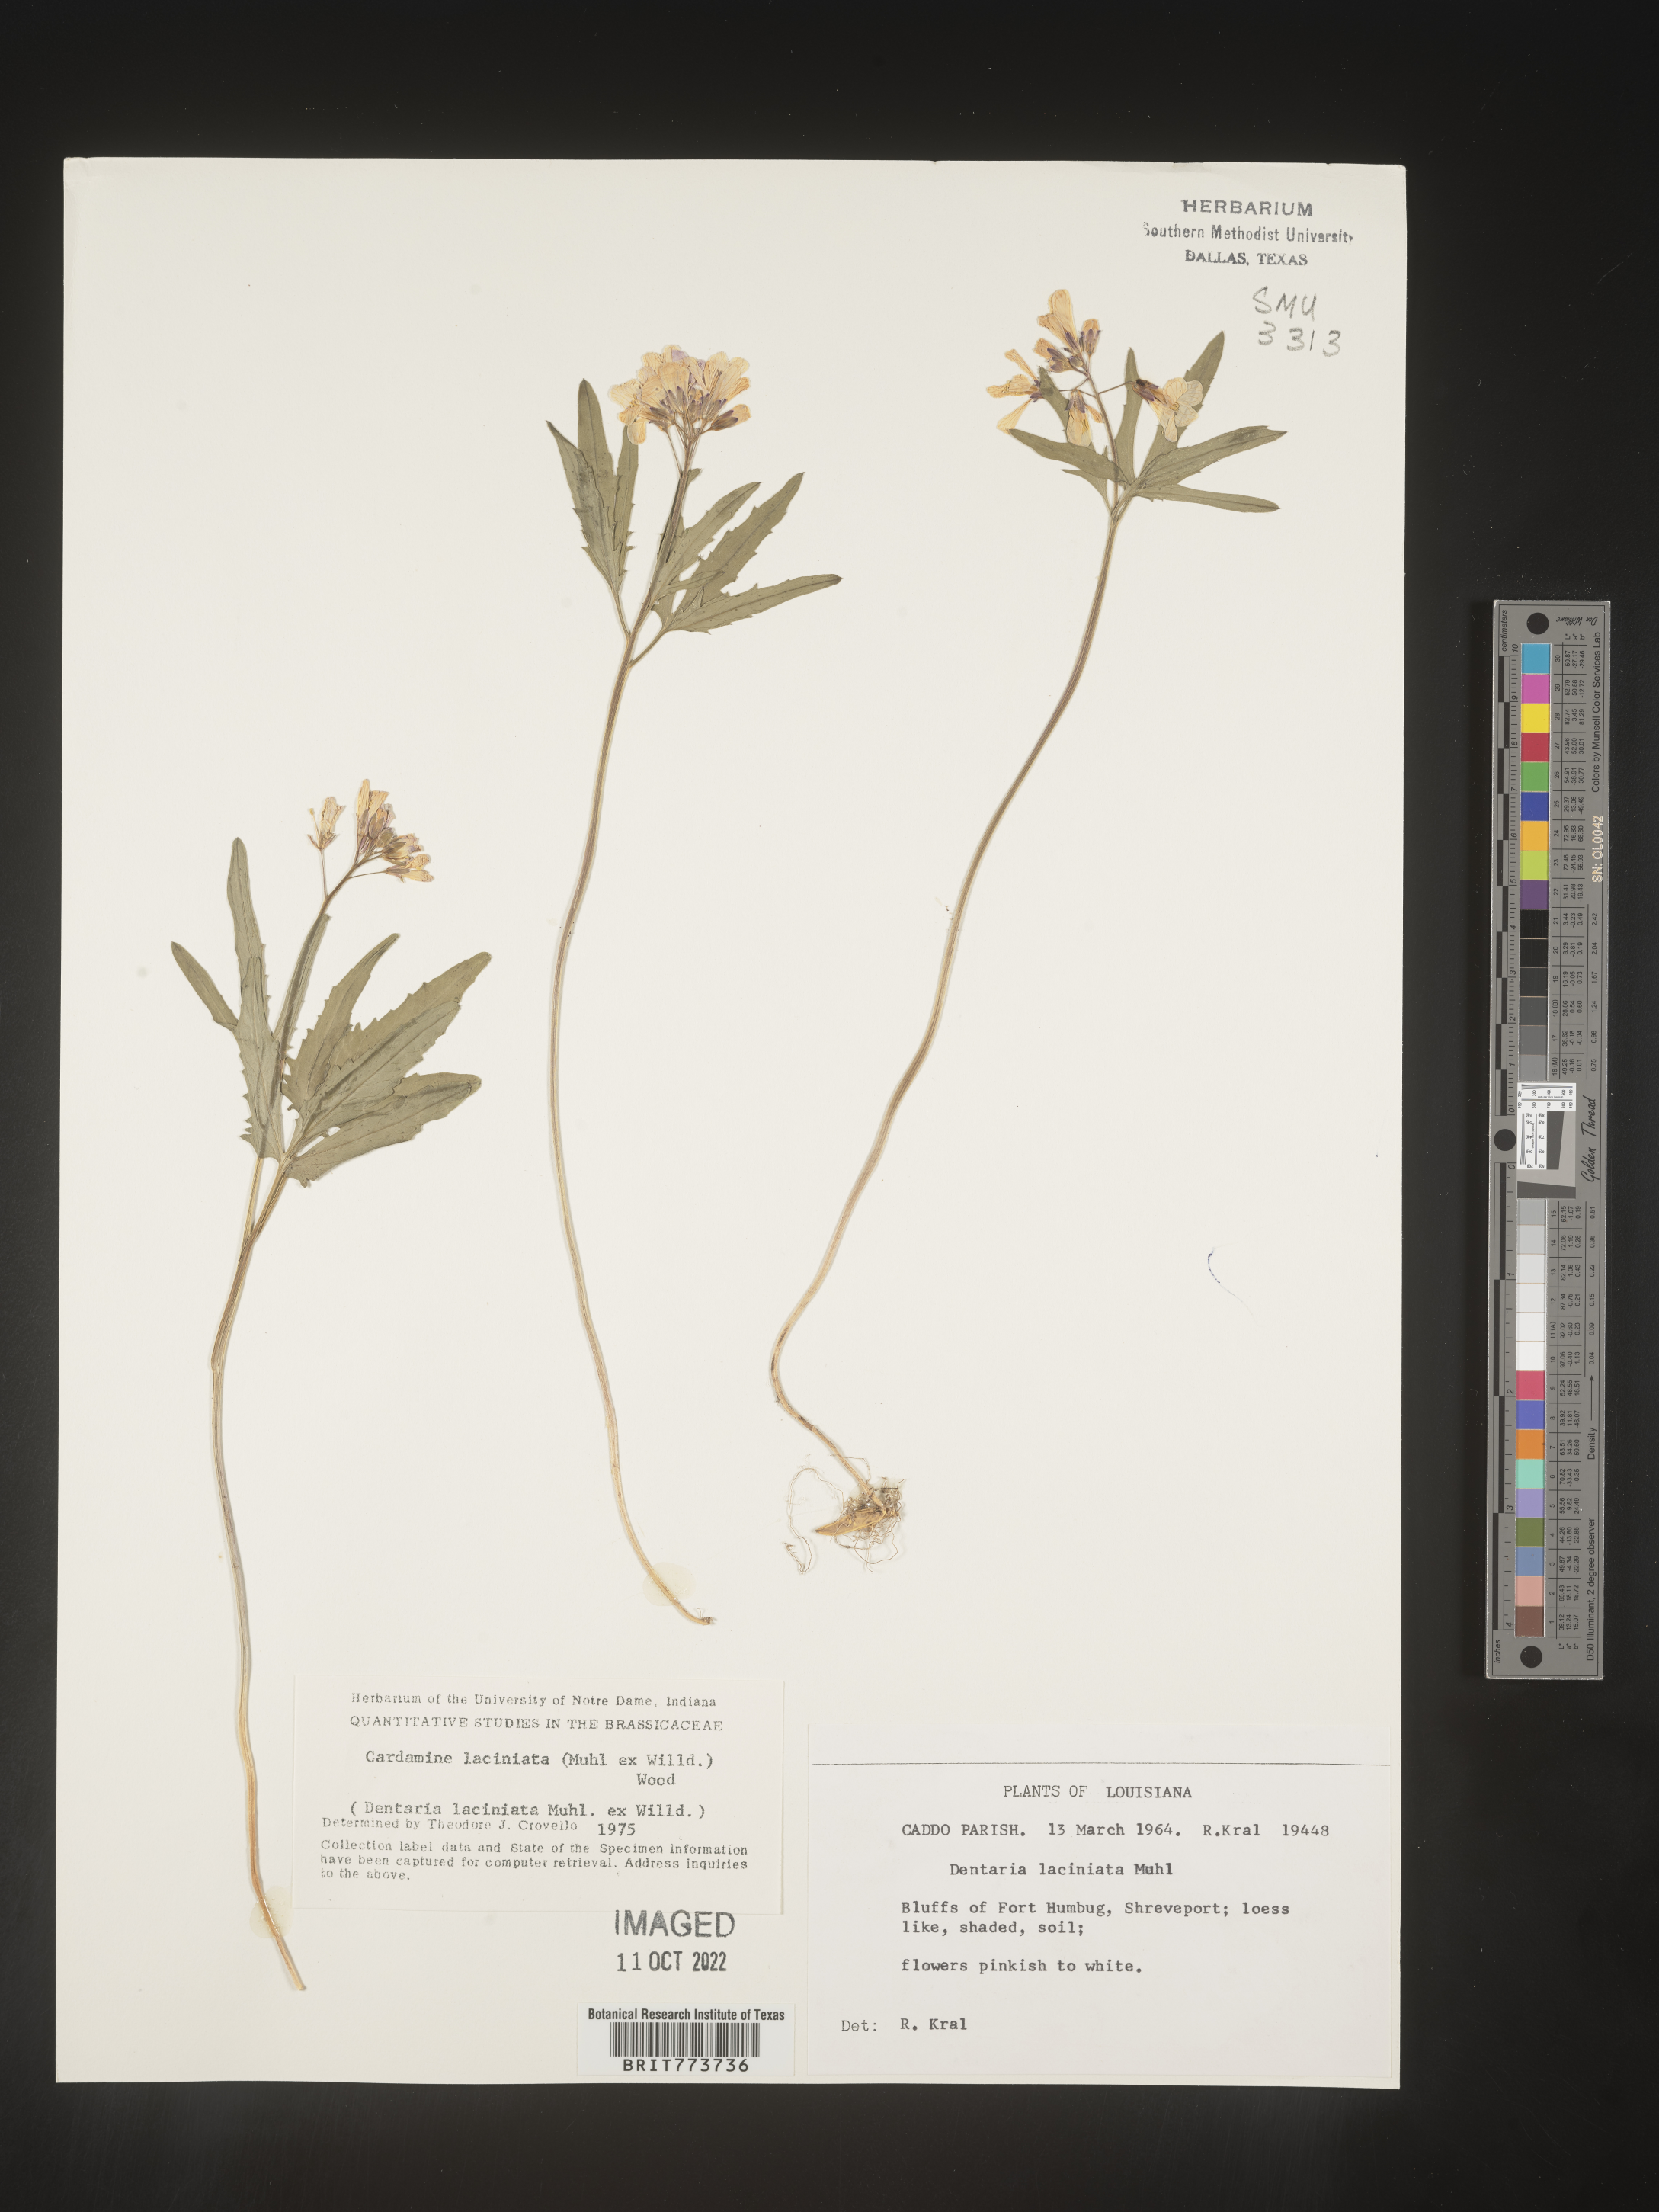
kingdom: Plantae
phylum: Tracheophyta
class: Magnoliopsida
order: Brassicales
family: Brassicaceae
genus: Rorippa
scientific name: Rorippa laciniata
